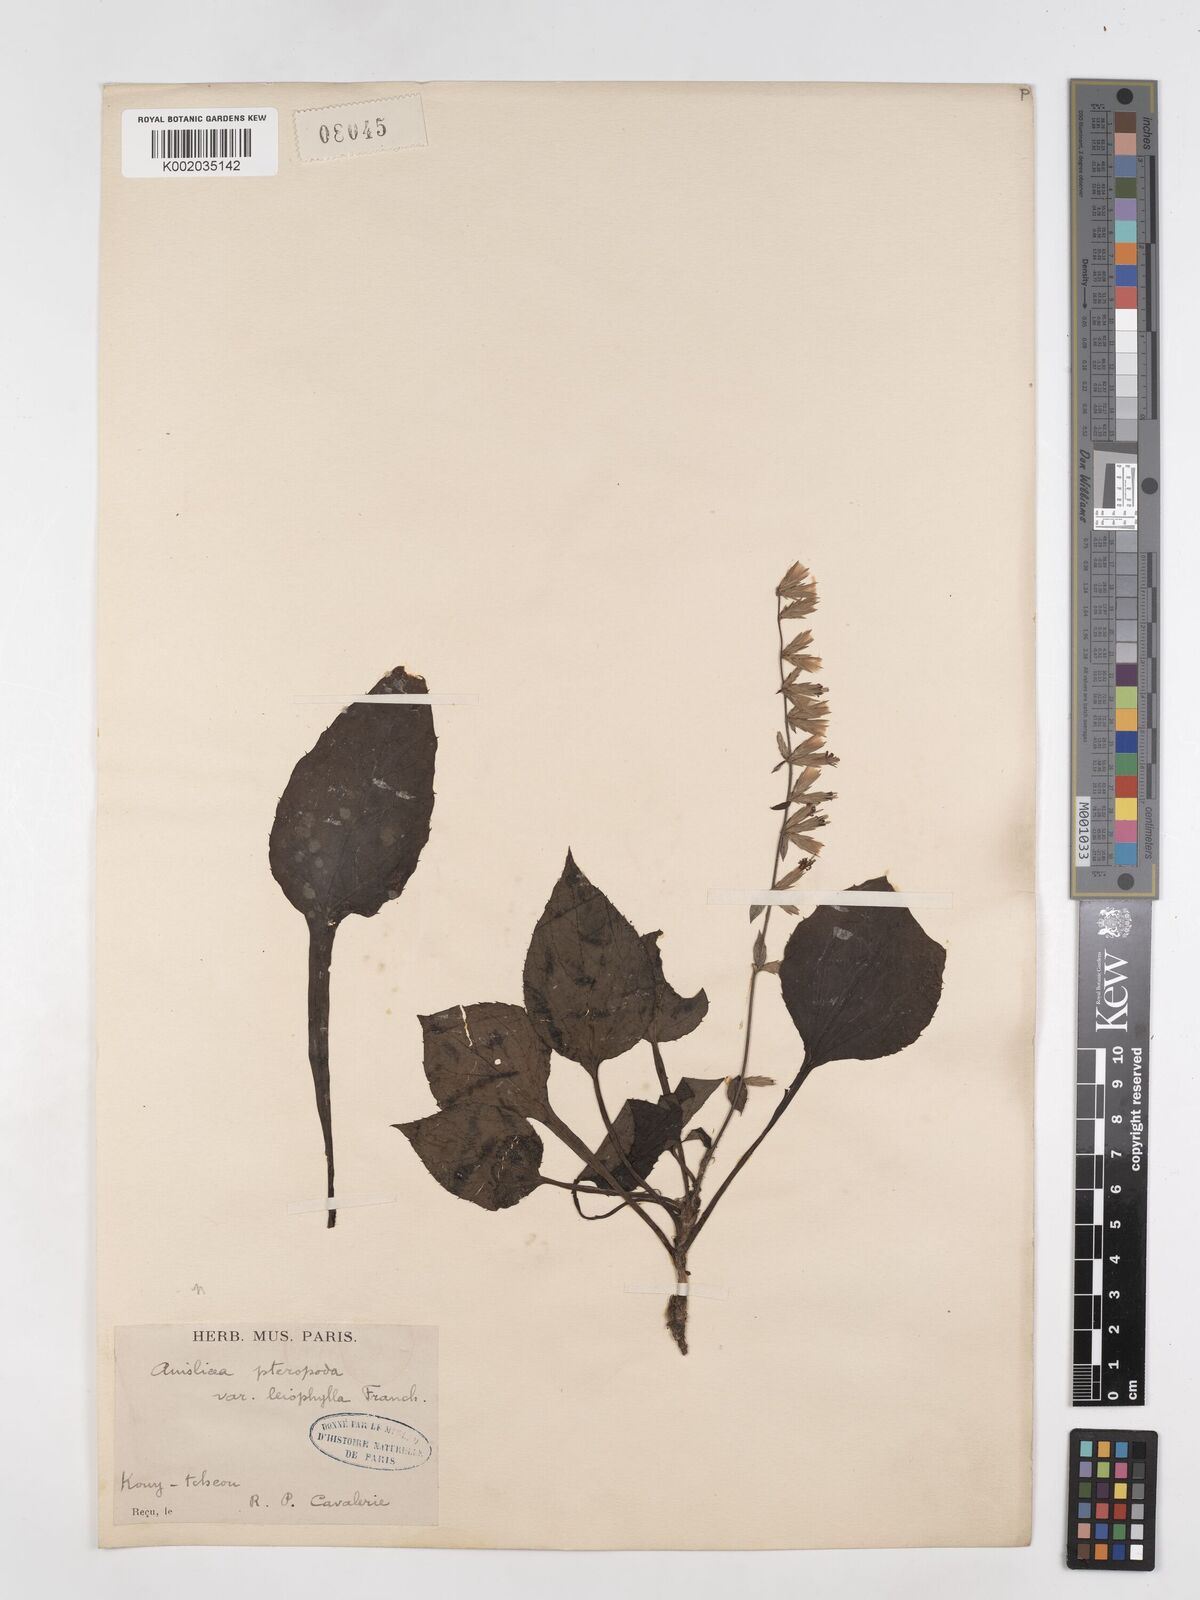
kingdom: Plantae
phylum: Tracheophyta
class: Magnoliopsida
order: Asterales
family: Asteraceae
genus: Ainsliaea
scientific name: Ainsliaea nervosa
